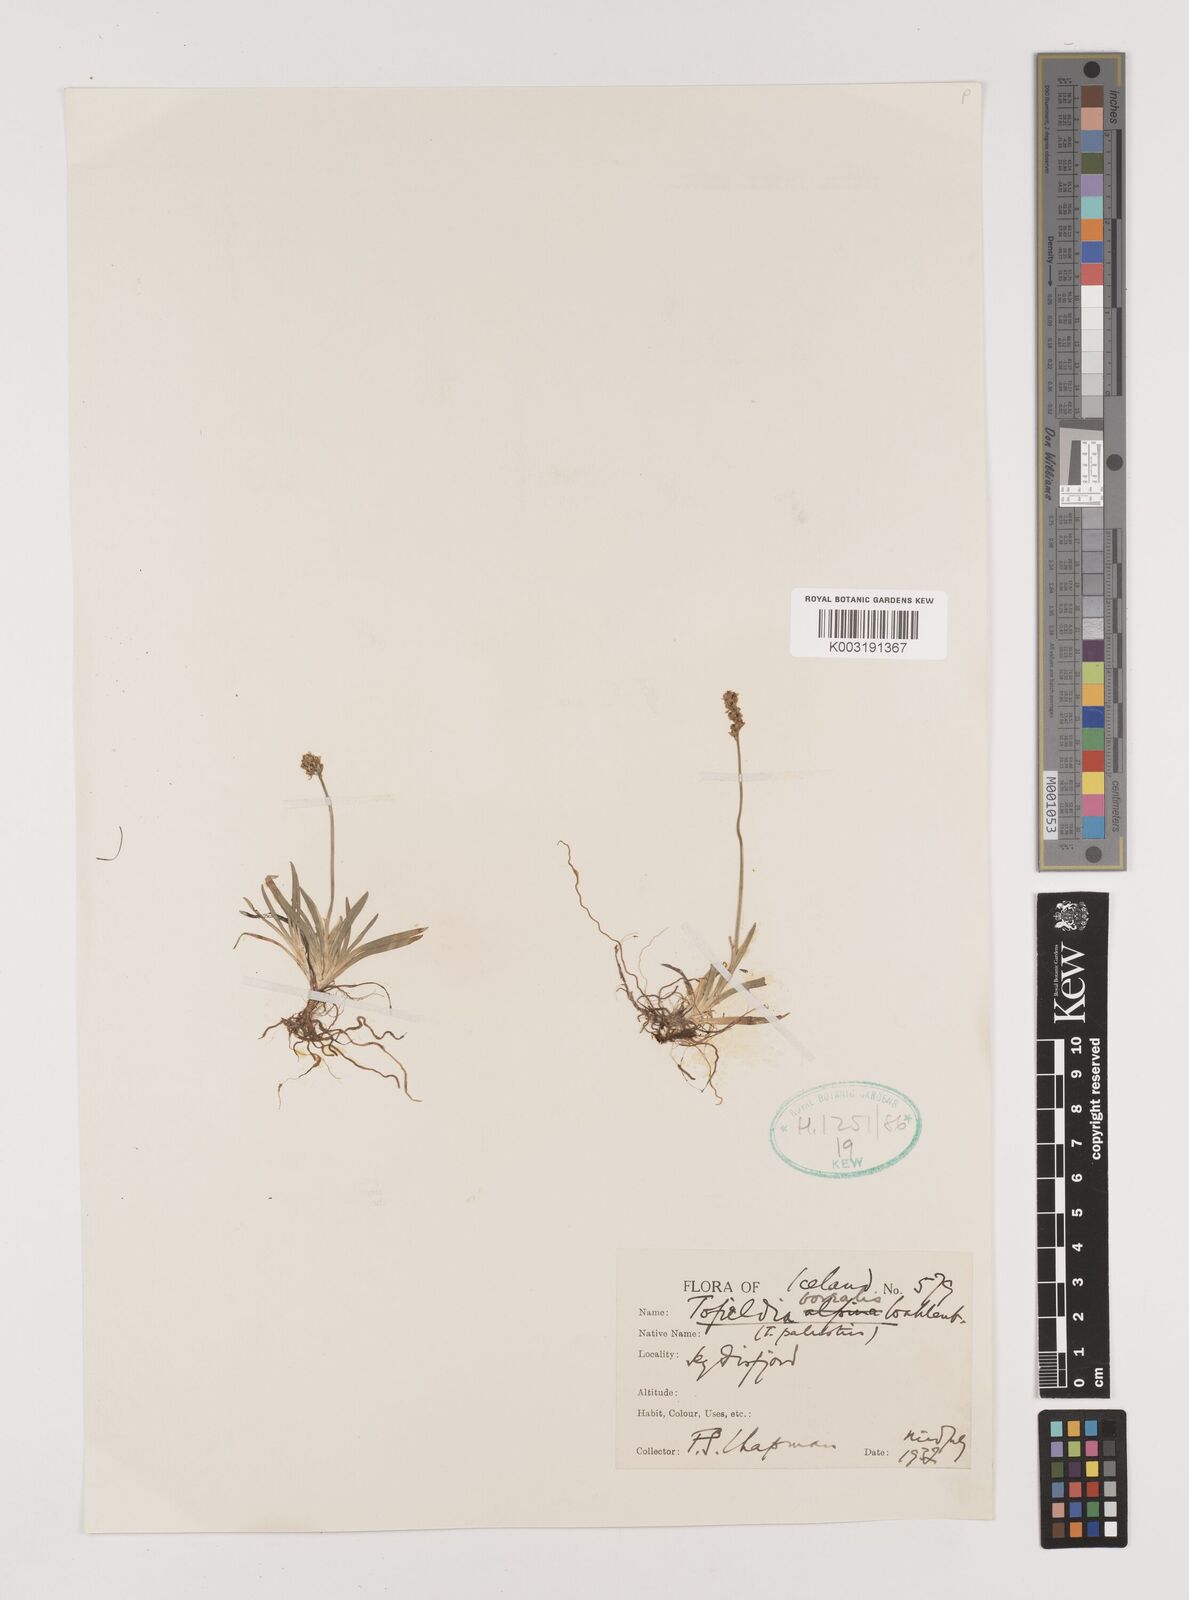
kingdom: Plantae
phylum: Tracheophyta
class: Liliopsida
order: Alismatales
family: Tofieldiaceae
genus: Tofieldia
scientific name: Tofieldia pusilla
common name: Scottish false asphodel
